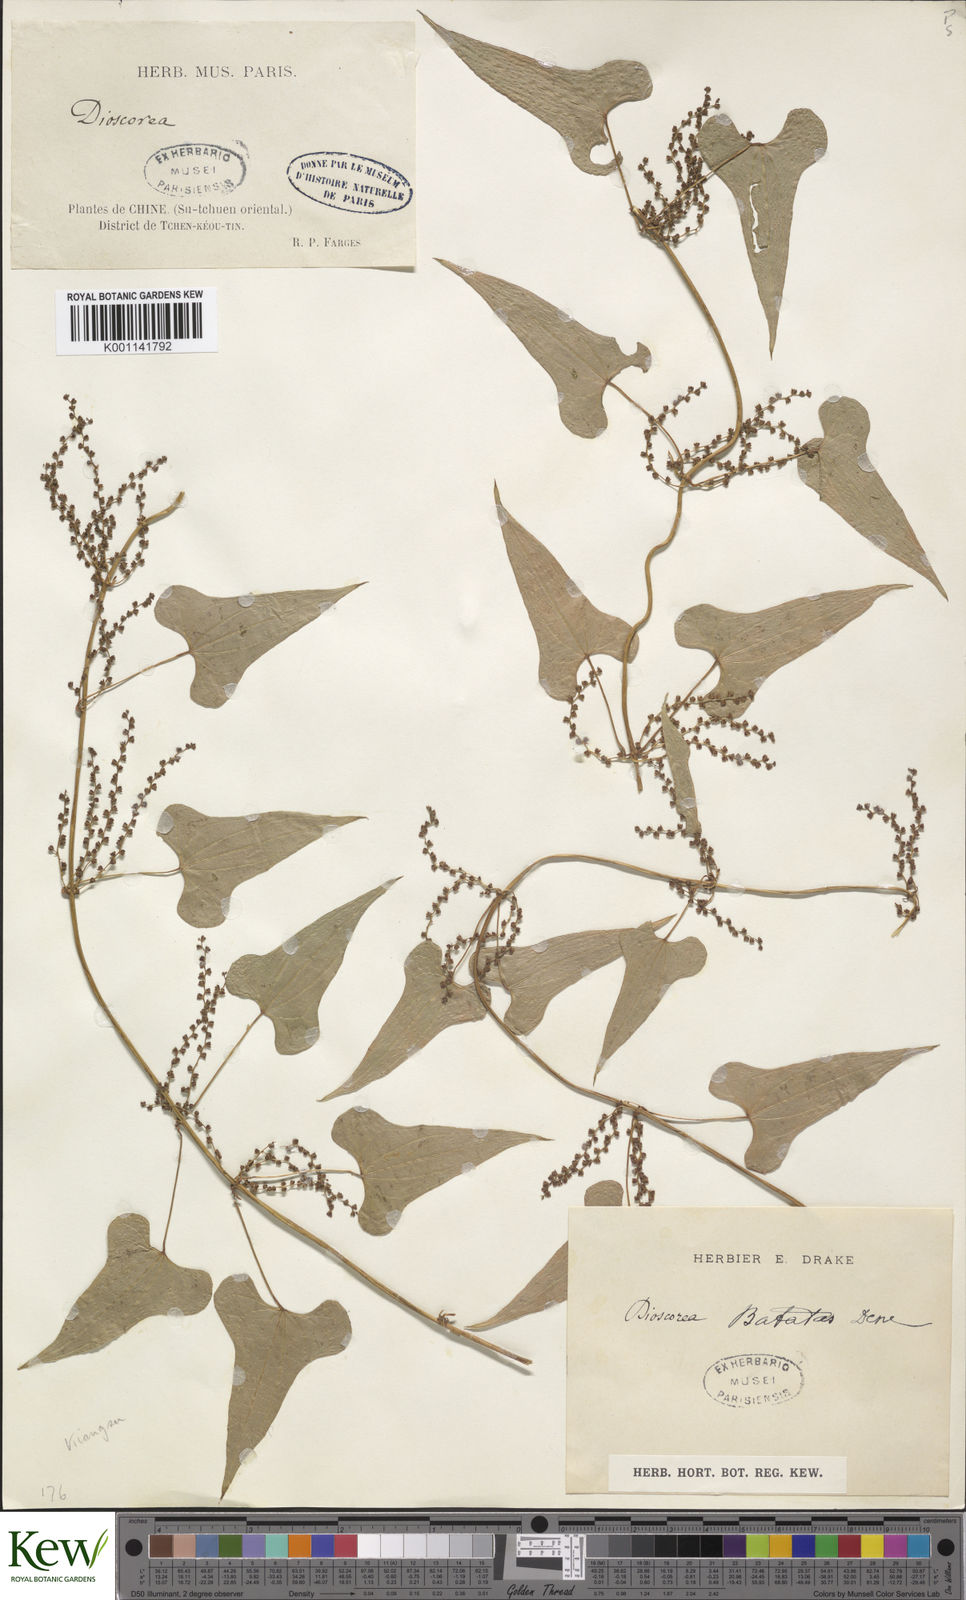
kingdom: Plantae
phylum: Tracheophyta
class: Liliopsida
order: Dioscoreales
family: Dioscoreaceae
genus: Dioscorea
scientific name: Dioscorea oppositifolia
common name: Chinese yam
